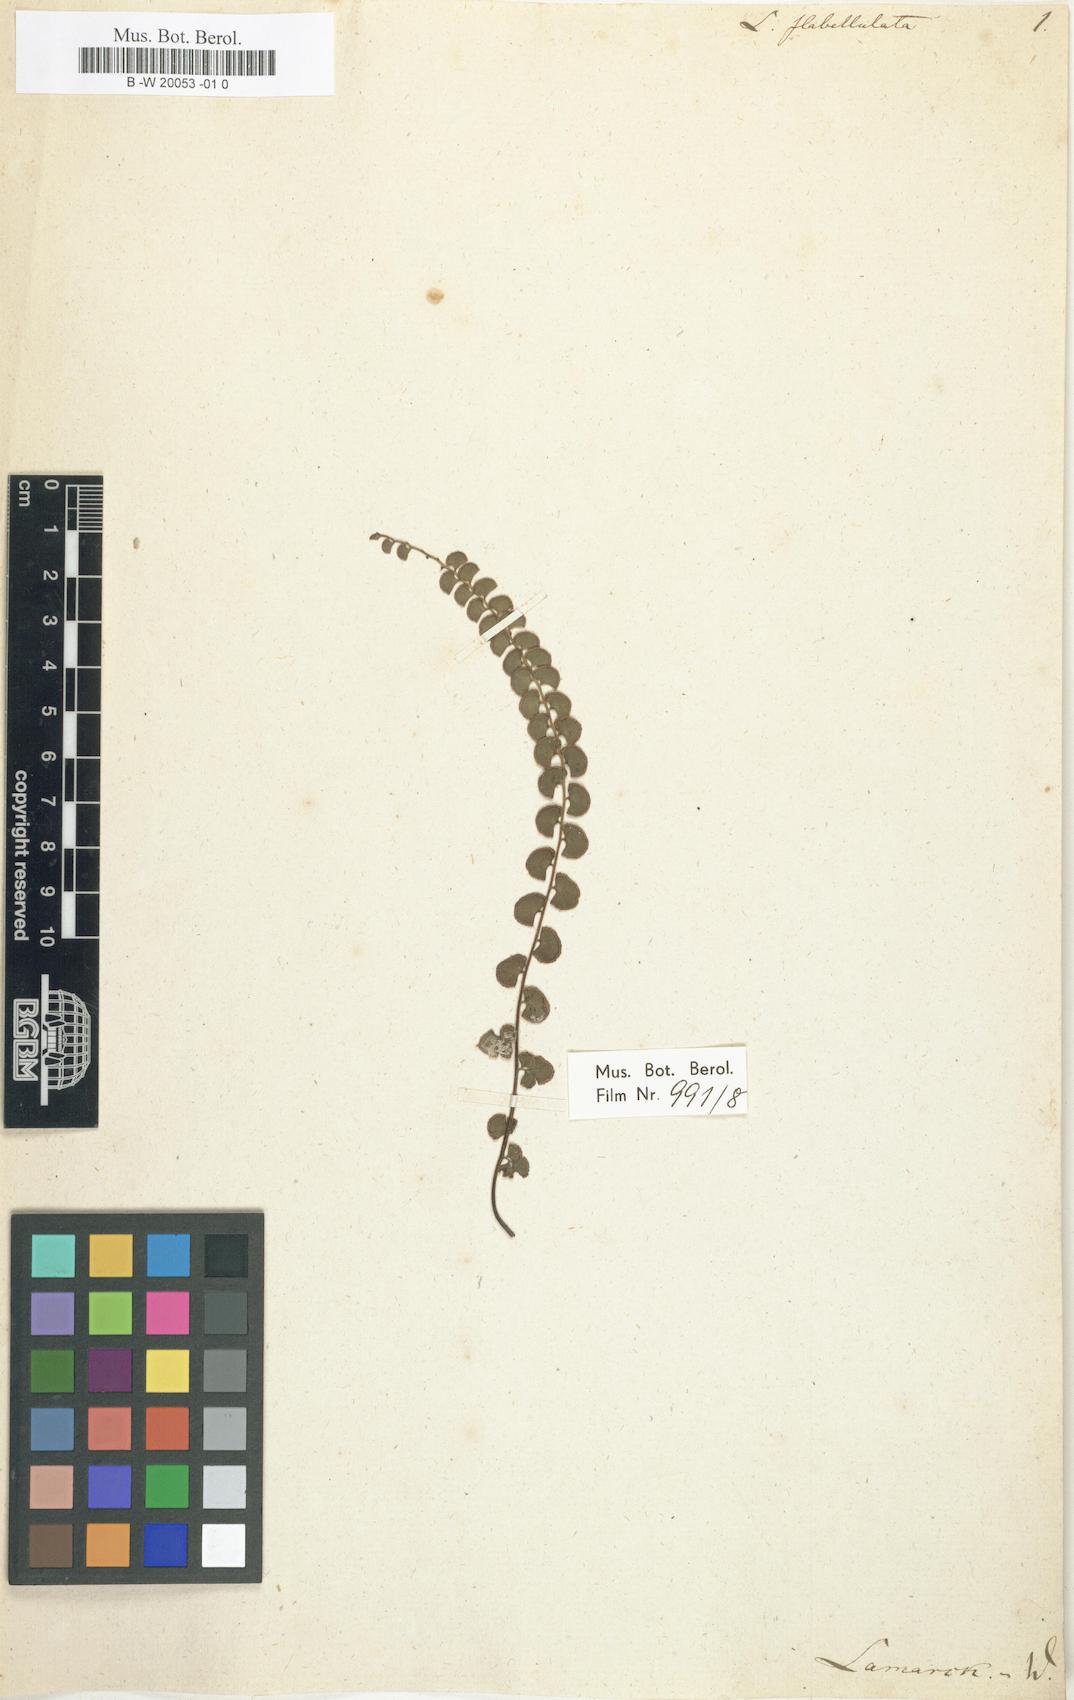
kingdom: Plantae
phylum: Tracheophyta
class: Polypodiopsida
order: Polypodiales
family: Lindsaeaceae
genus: Lindsaea
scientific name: Lindsaea orbiculata
